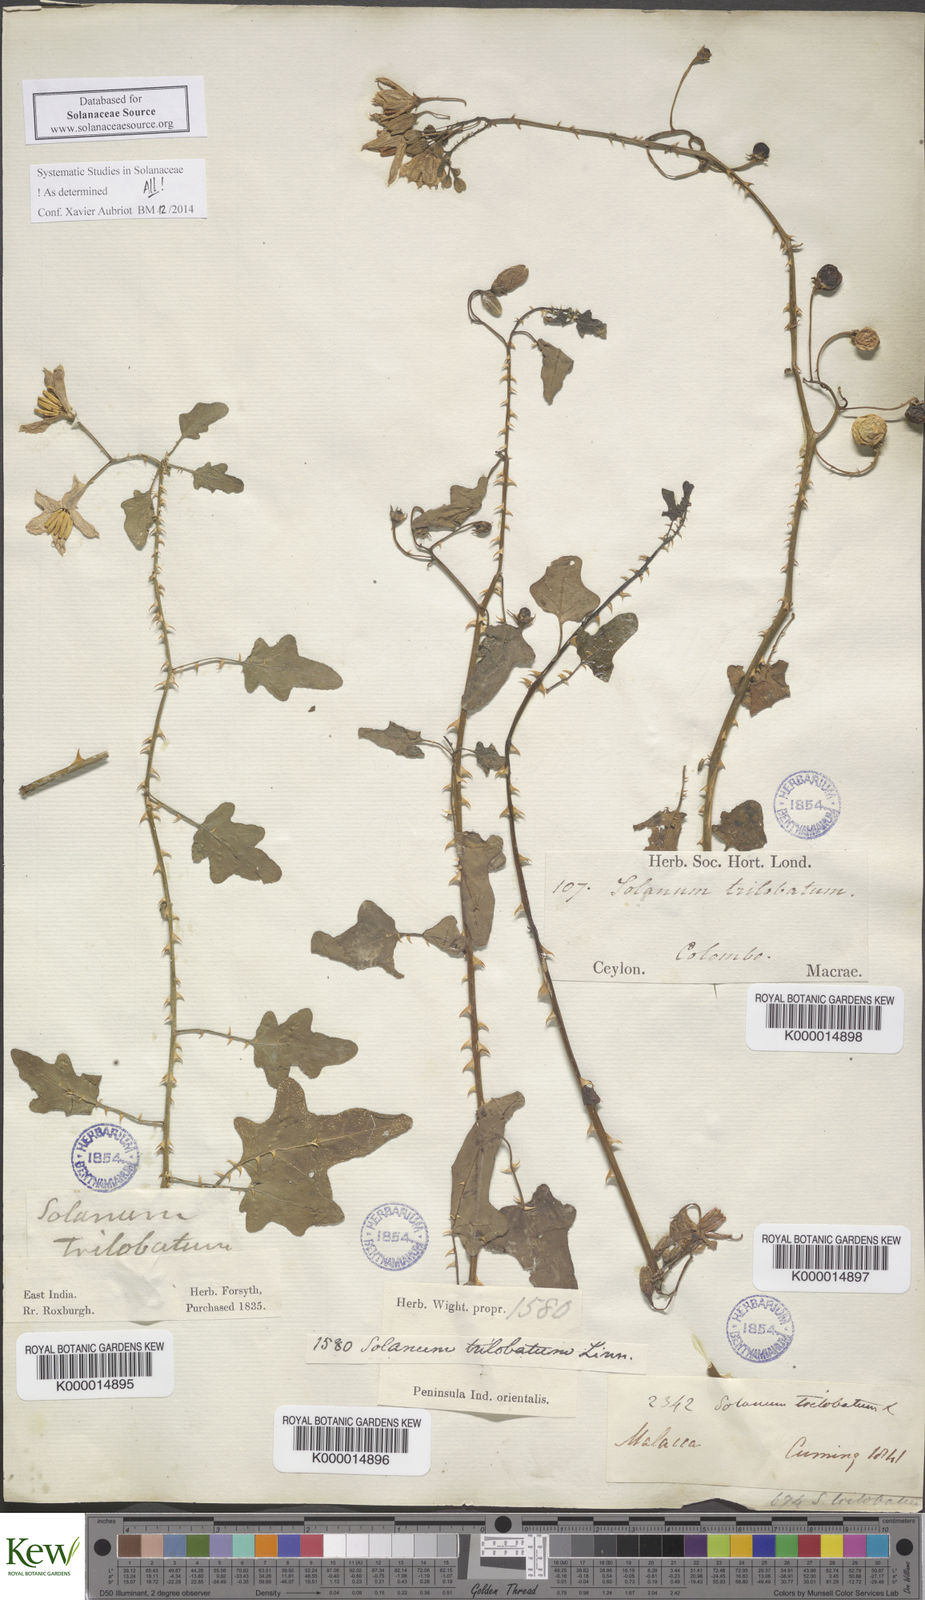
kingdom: Plantae
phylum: Tracheophyta
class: Magnoliopsida
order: Solanales
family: Solanaceae
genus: Solanum
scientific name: Solanum trilobatum
